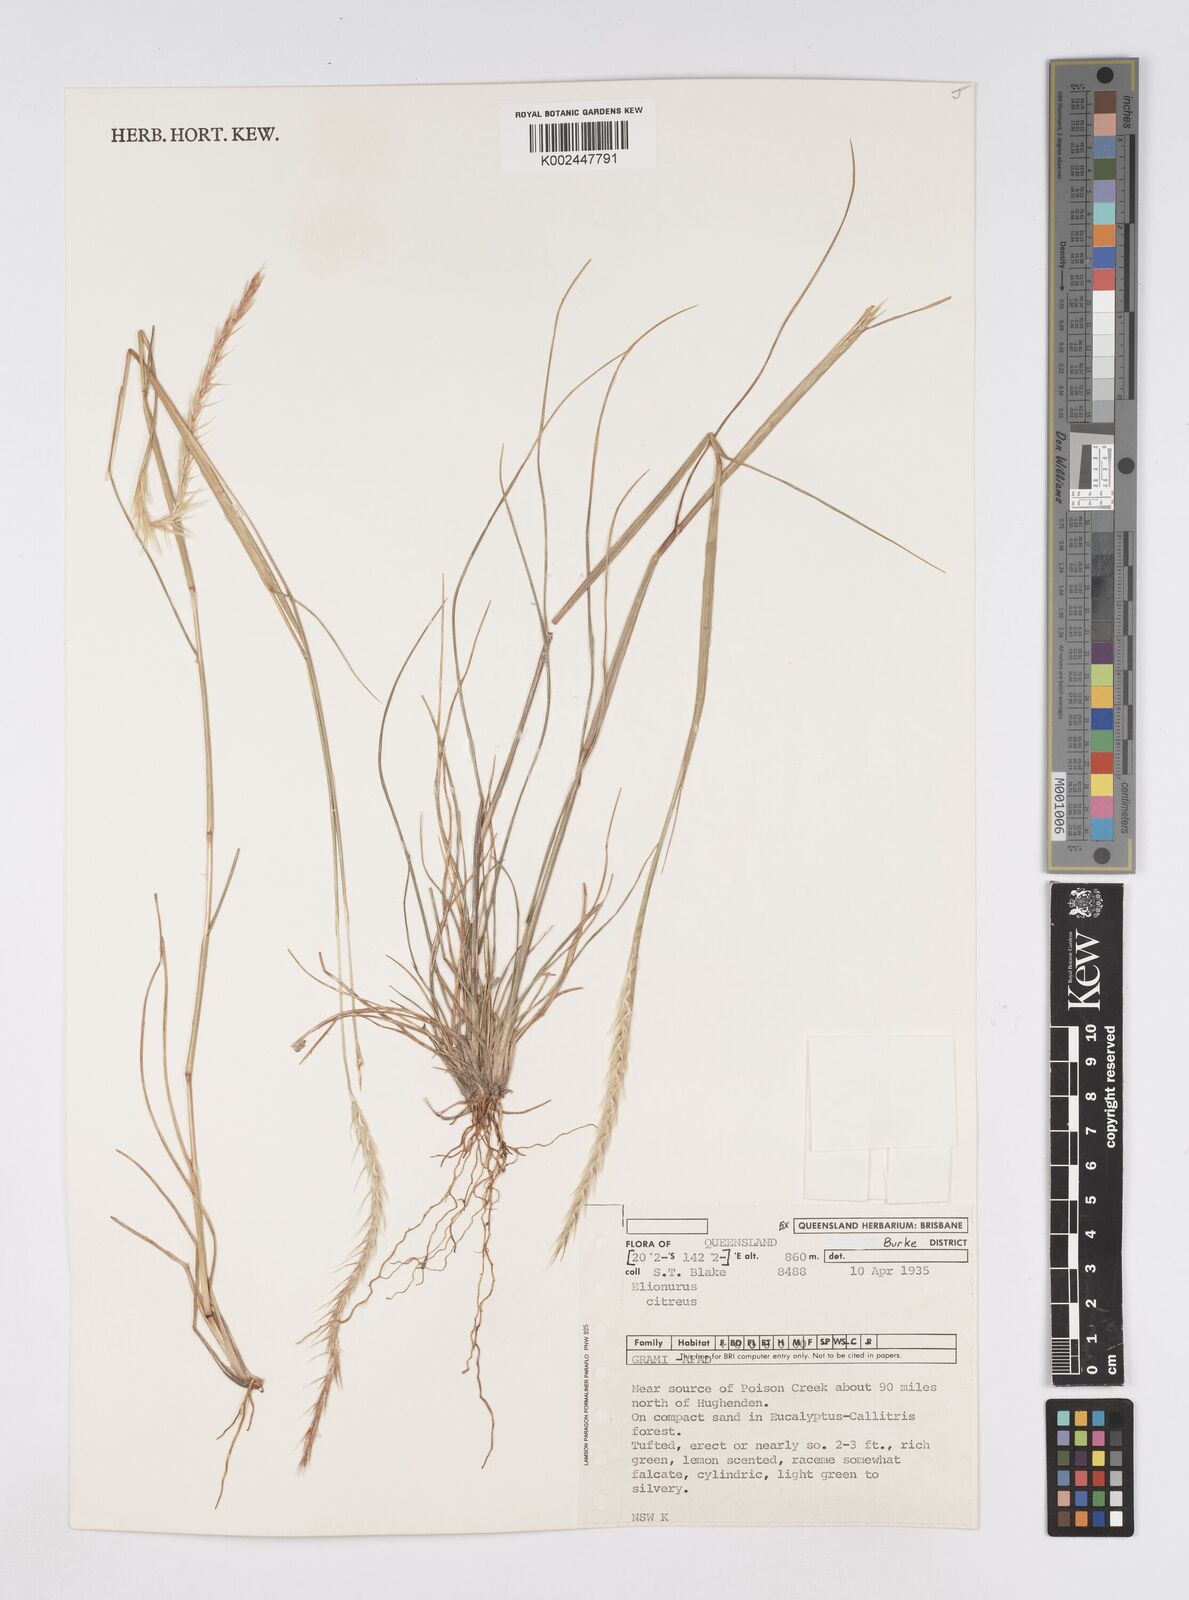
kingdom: Plantae
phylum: Tracheophyta
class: Liliopsida
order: Poales
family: Poaceae
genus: Elionurus
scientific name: Elionurus citreus
